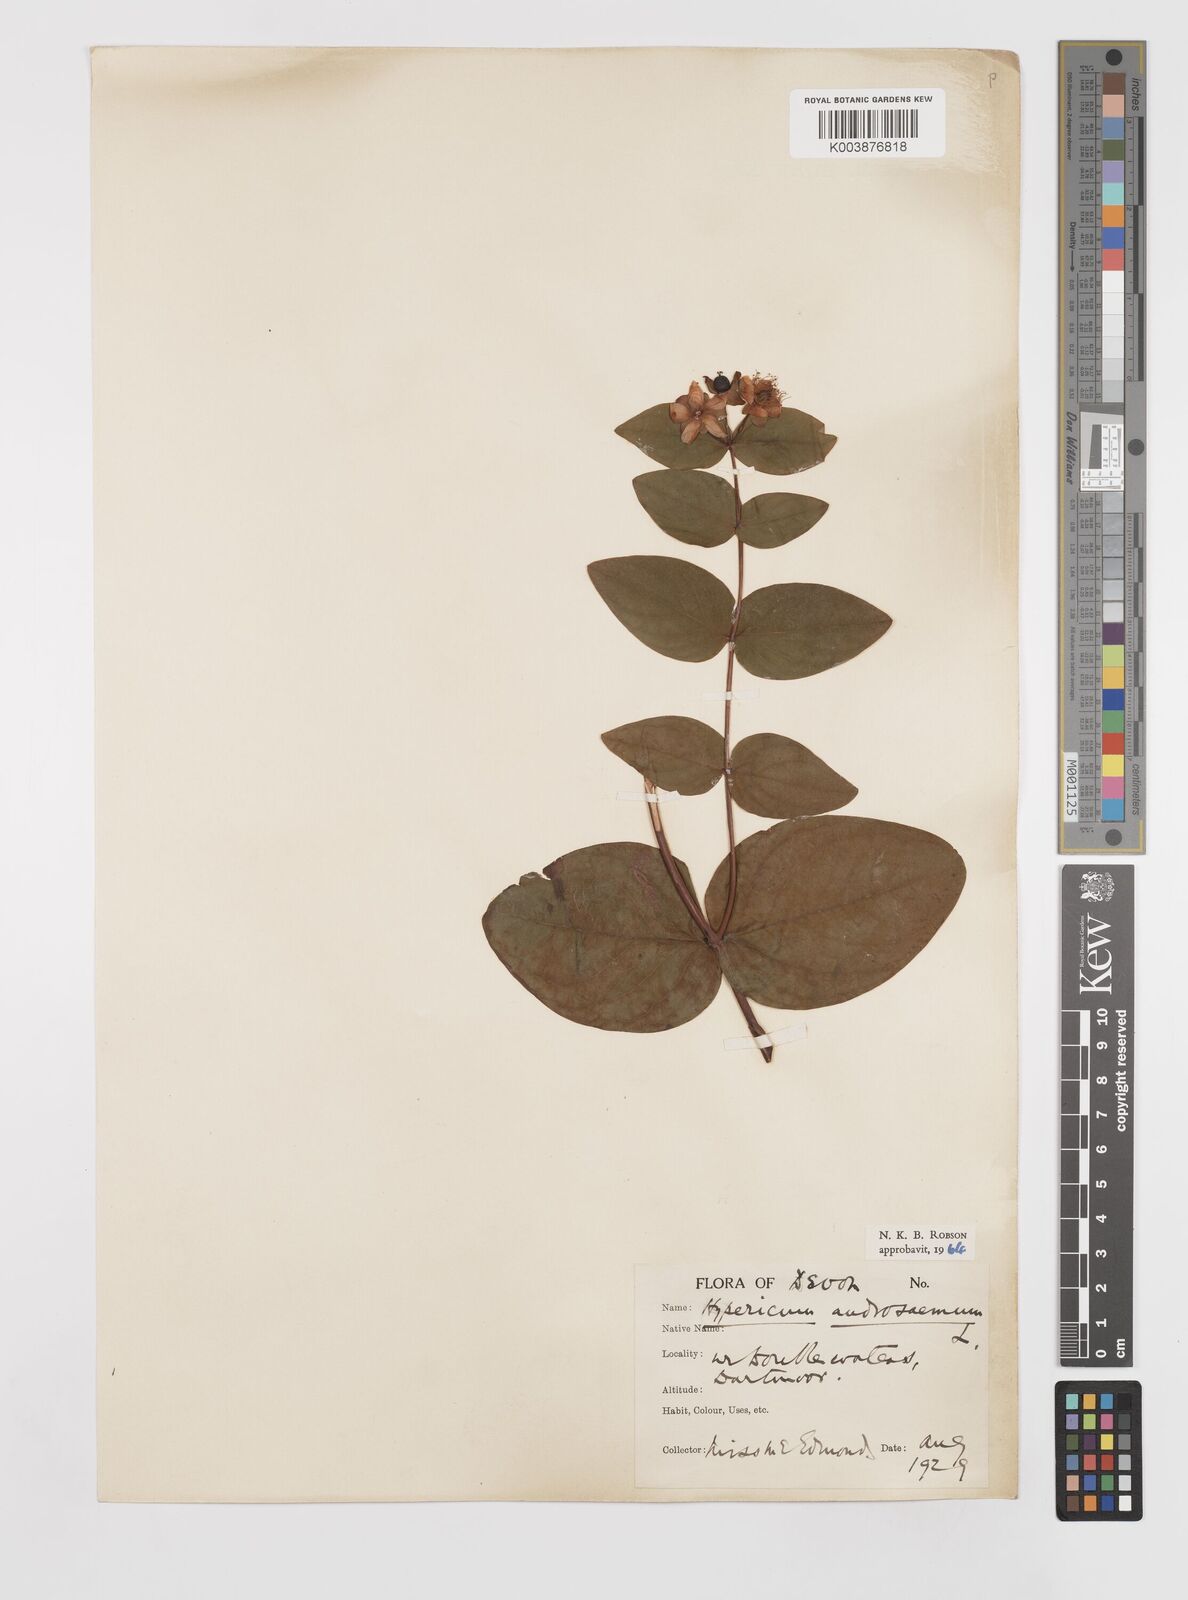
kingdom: Plantae
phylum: Tracheophyta
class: Magnoliopsida
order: Malpighiales
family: Hypericaceae
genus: Hypericum
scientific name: Hypericum androsaemum
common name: Sweet-amber
